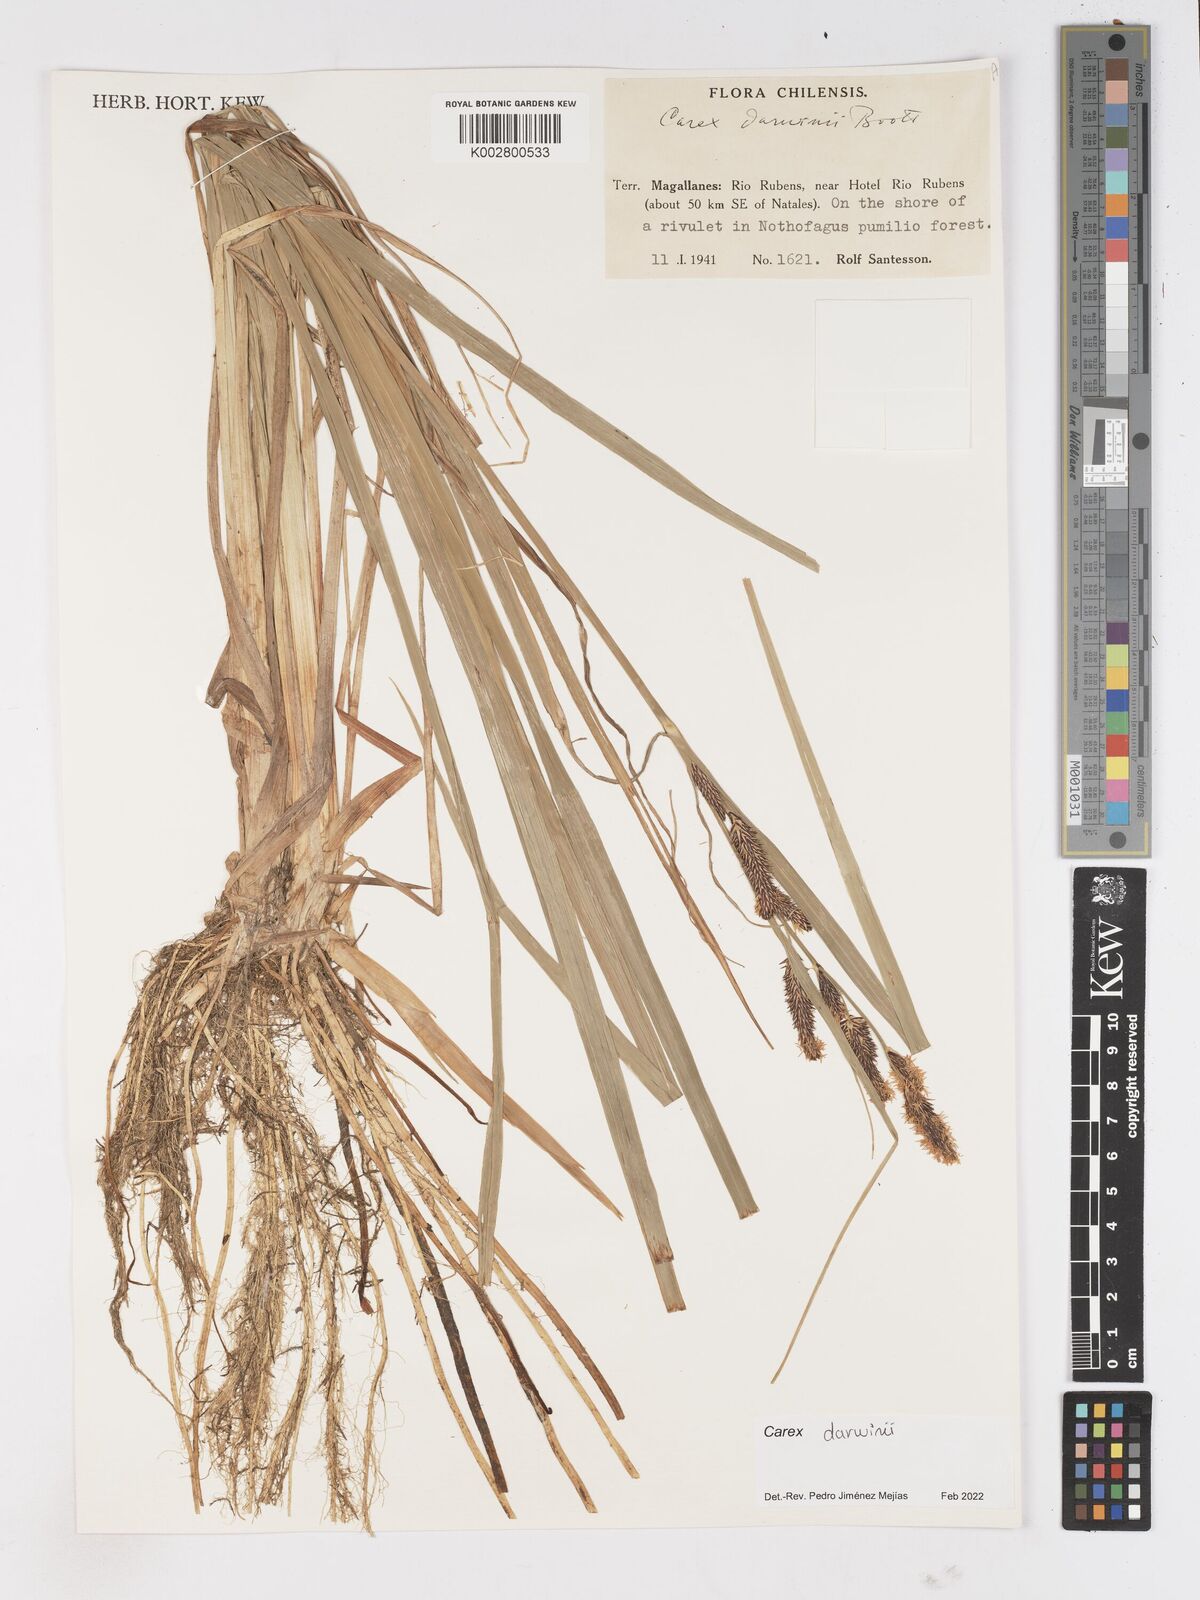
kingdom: Plantae
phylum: Tracheophyta
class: Liliopsida
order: Poales
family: Cyperaceae
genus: Carex
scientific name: Carex darwinii
